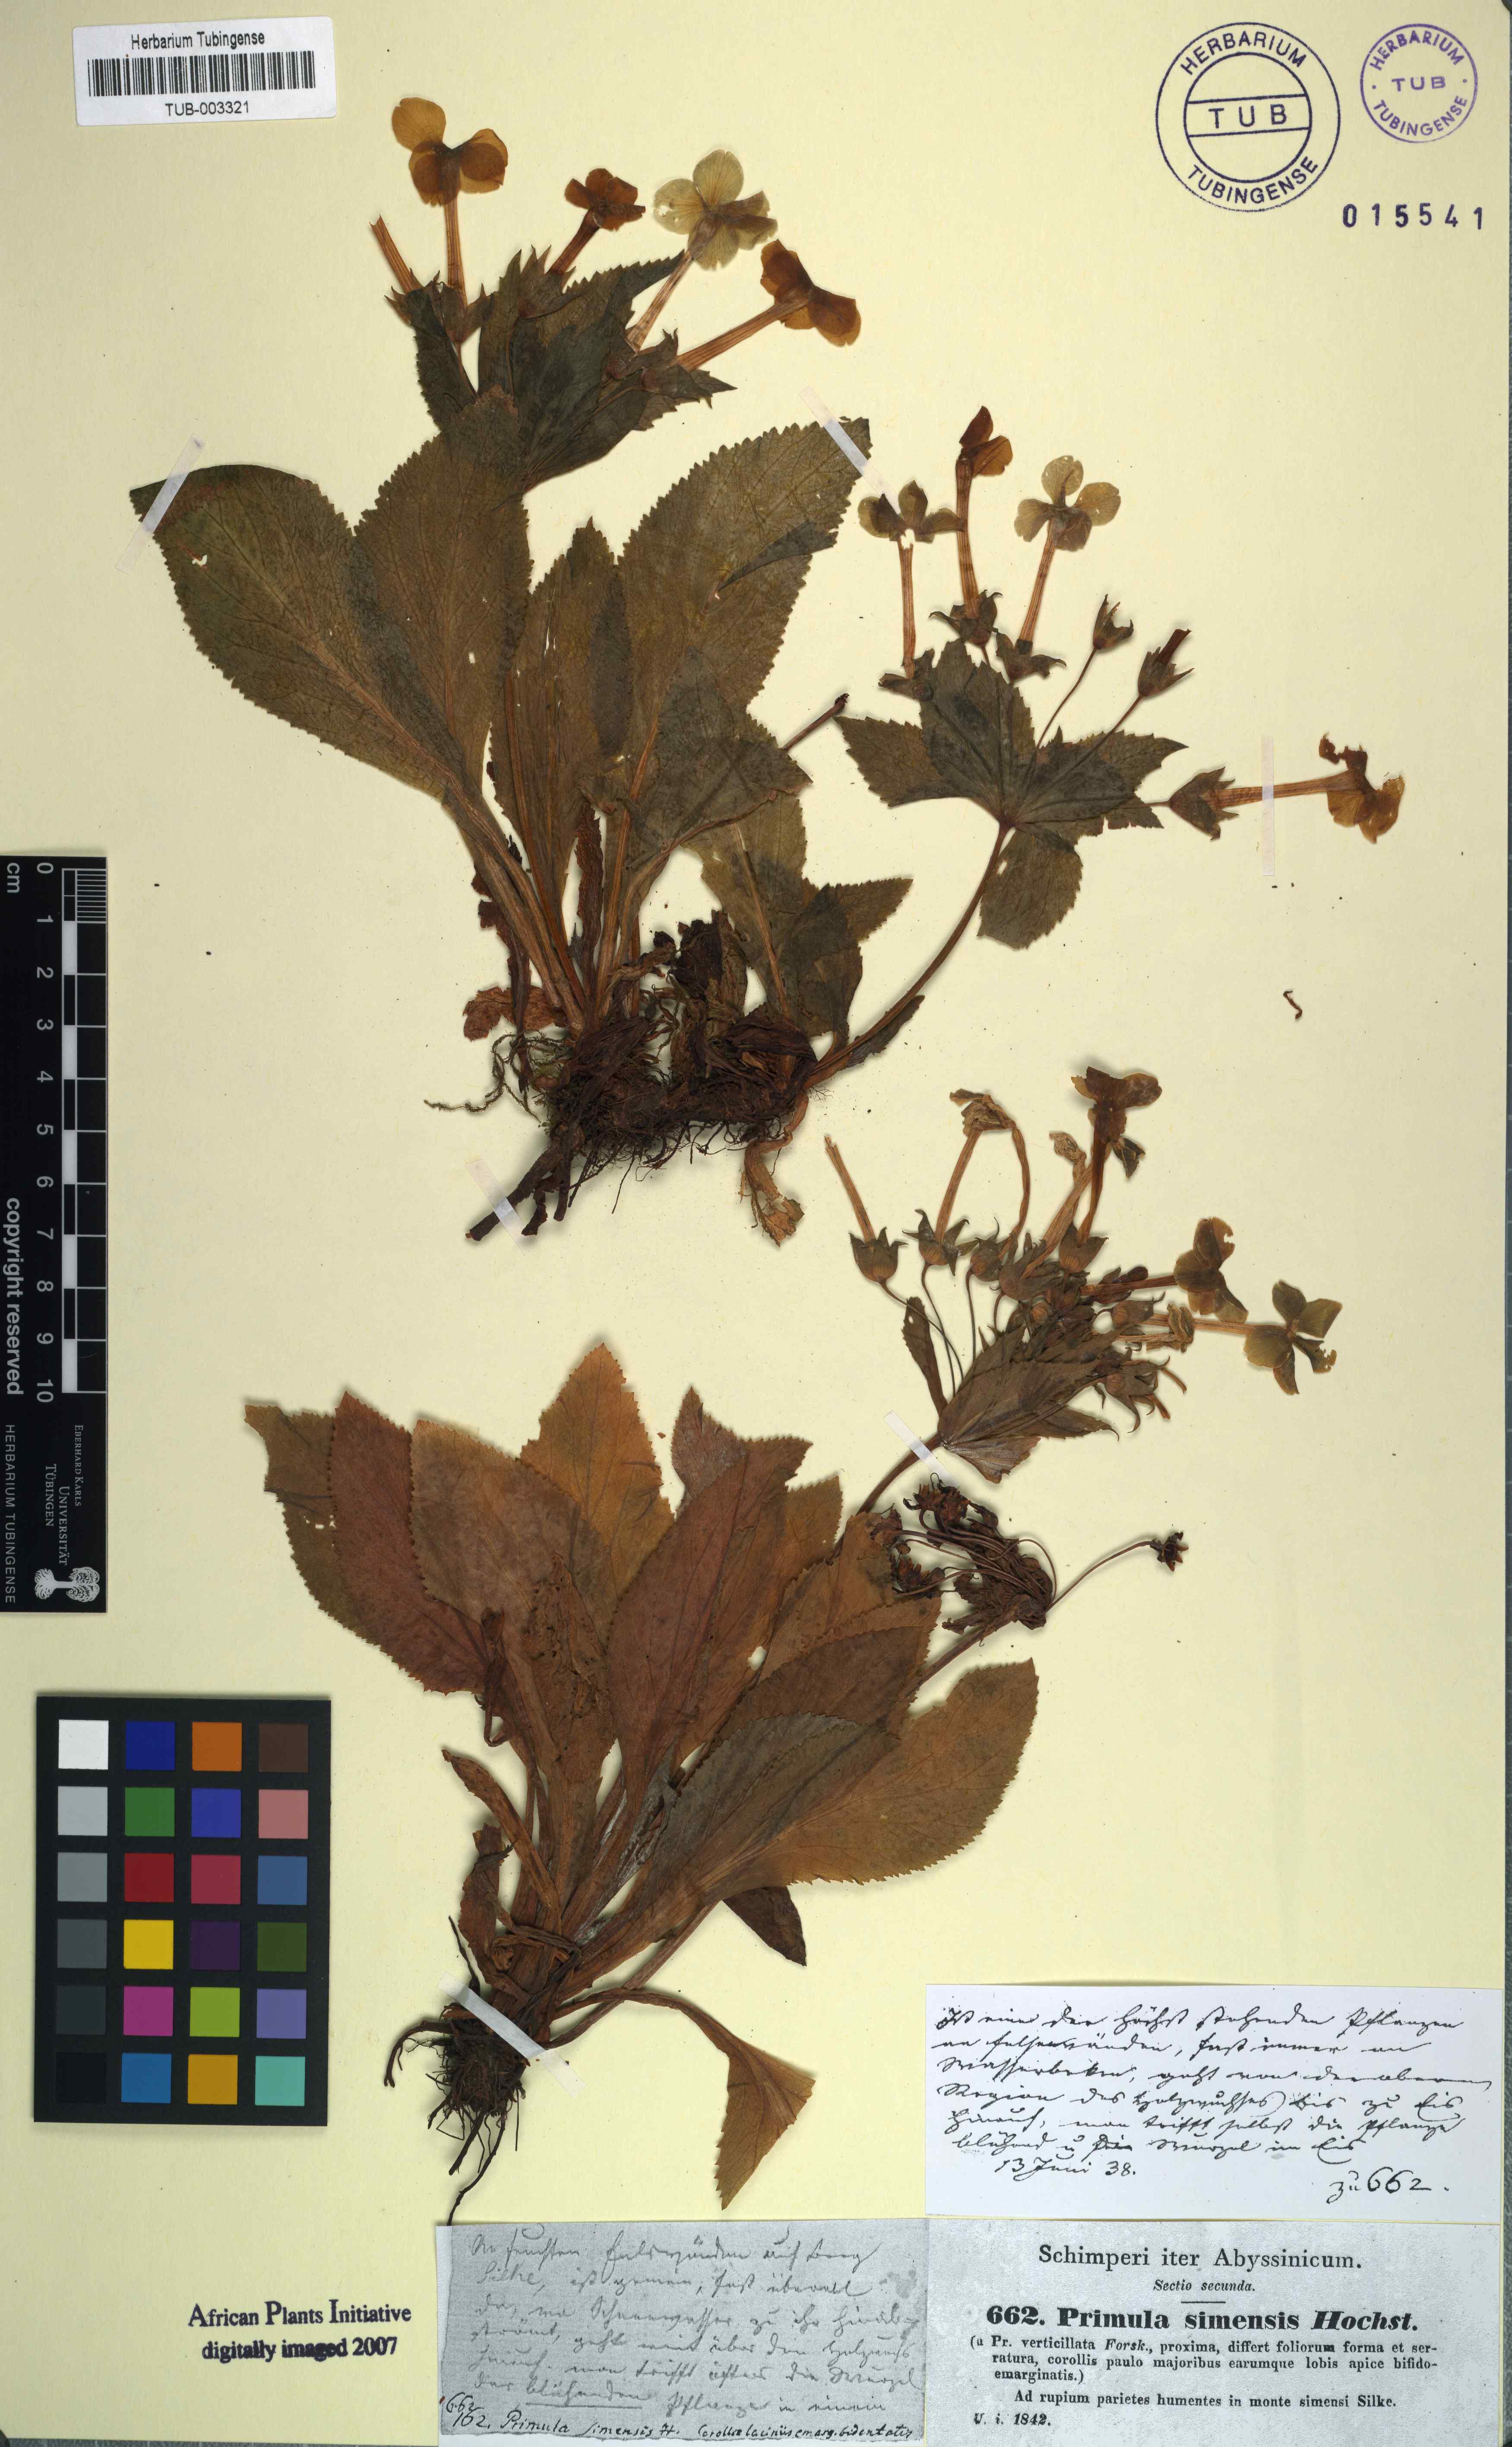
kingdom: Plantae
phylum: Tracheophyta
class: Magnoliopsida
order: Ericales
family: Primulaceae
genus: Evotrochis
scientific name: Evotrochis verticillata
